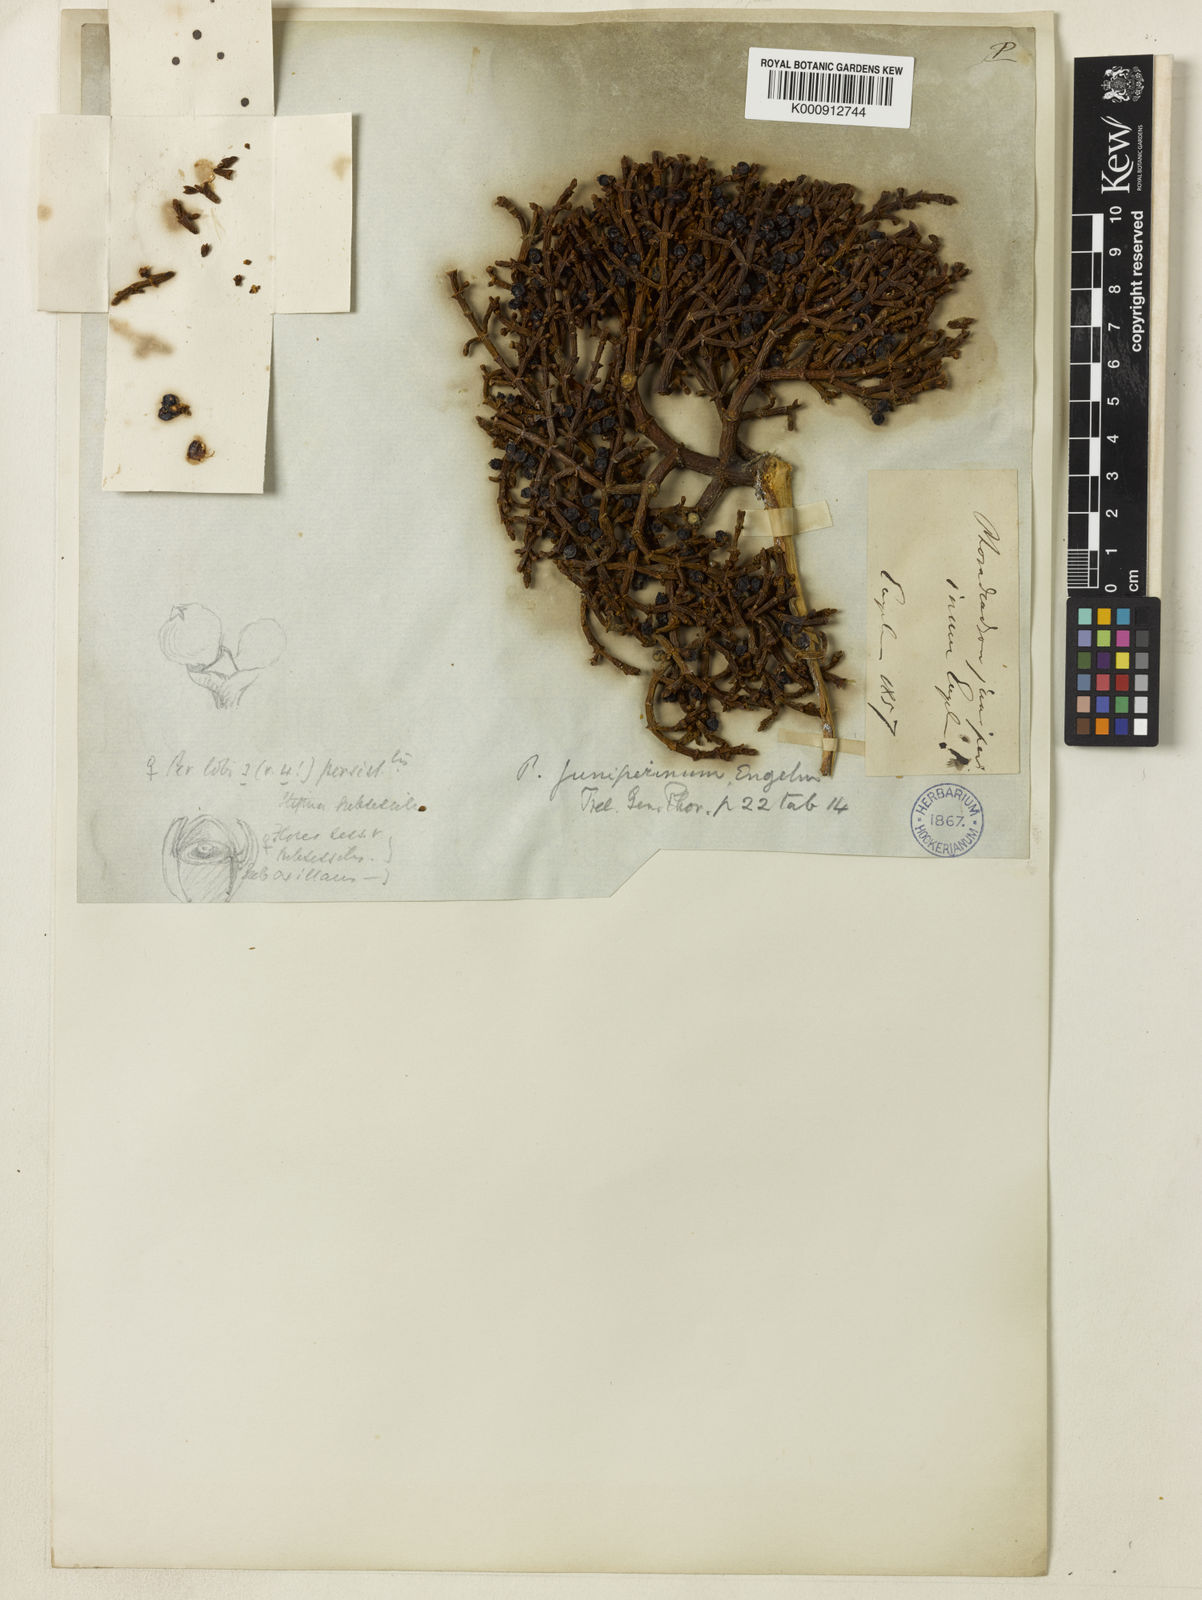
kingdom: Plantae
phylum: Tracheophyta
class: Magnoliopsida
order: Santalales
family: Viscaceae
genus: Phoradendron
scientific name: Phoradendron
